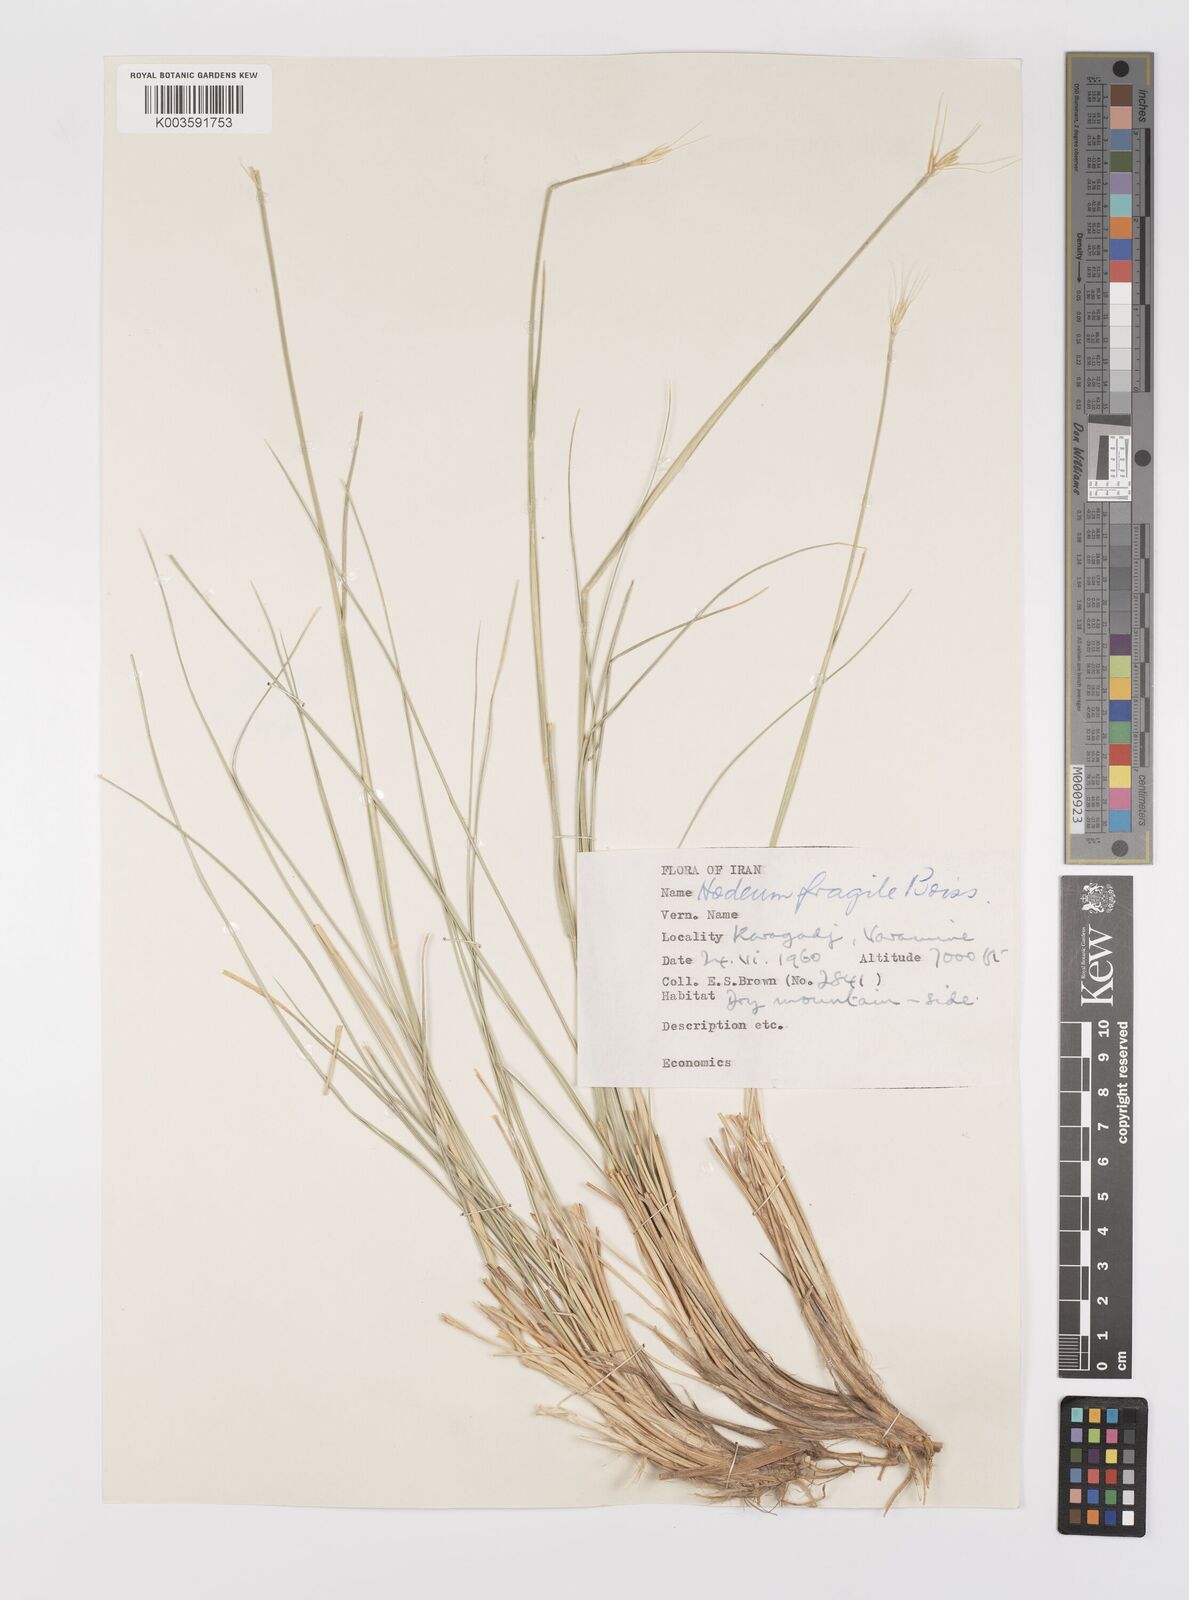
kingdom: Plantae
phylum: Tracheophyta
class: Liliopsida
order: Poales
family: Poaceae
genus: Psathyrostachys
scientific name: Psathyrostachys fragilis
